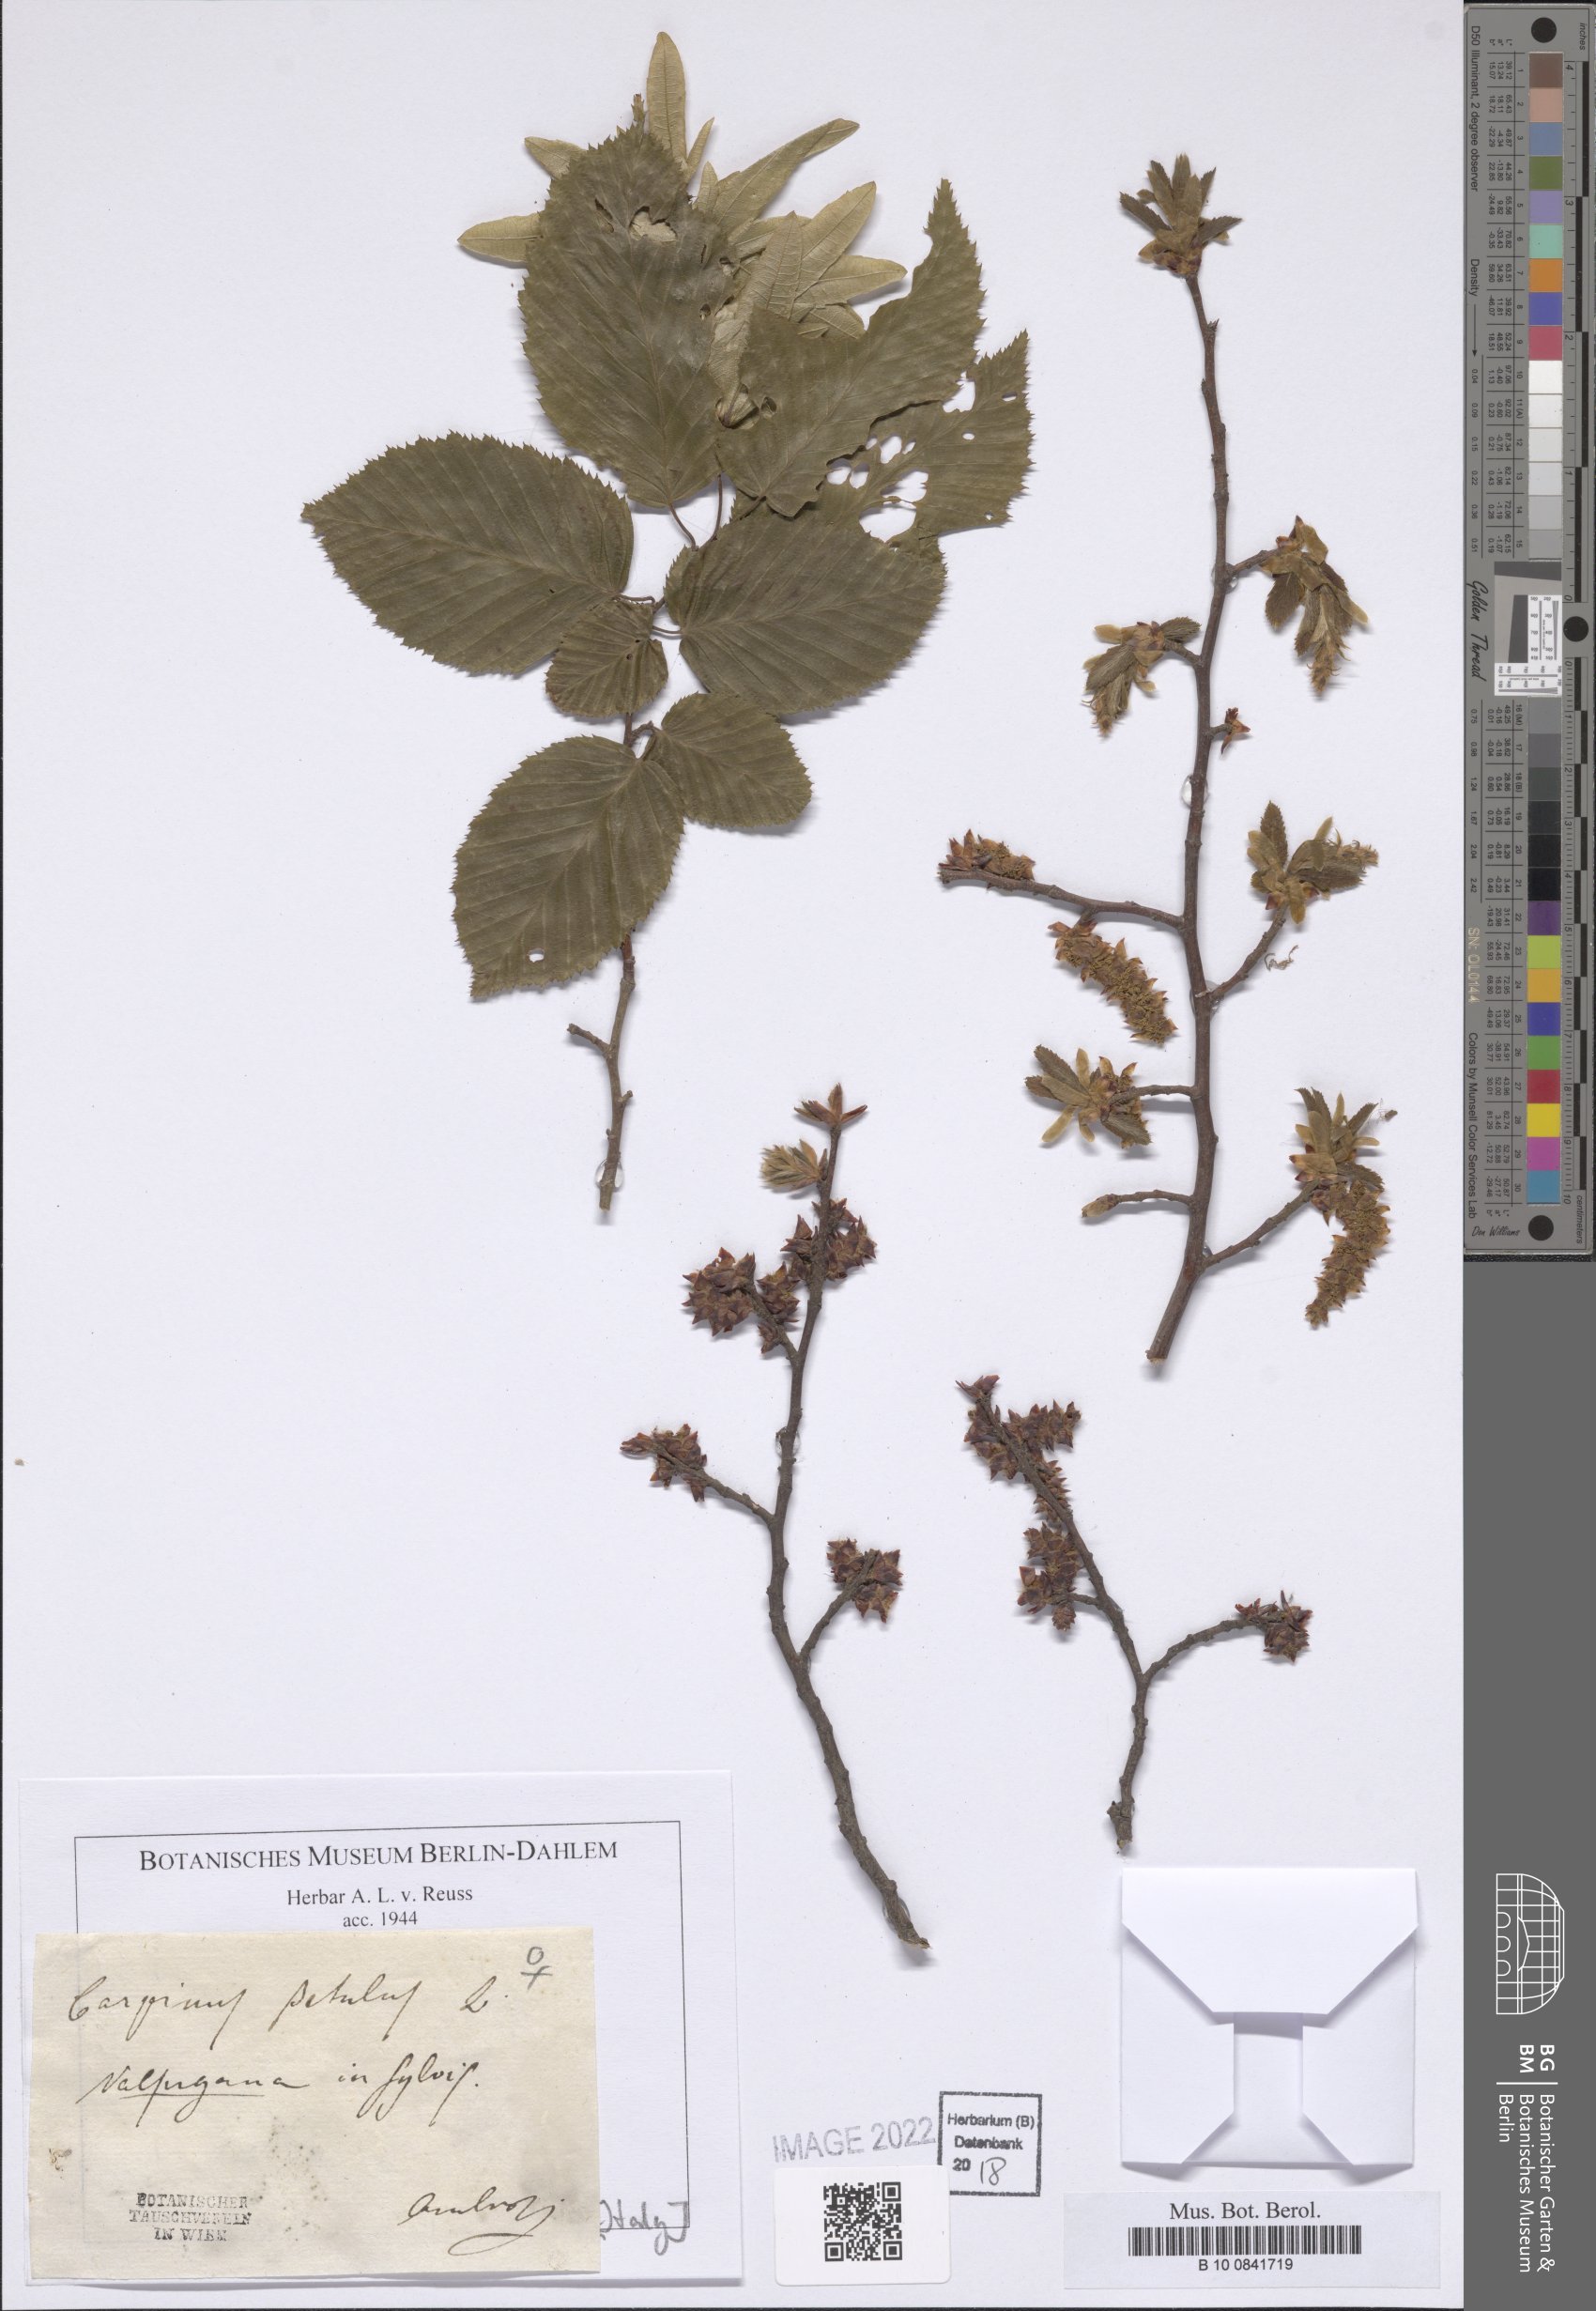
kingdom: Plantae
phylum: Tracheophyta
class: Magnoliopsida
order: Fagales
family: Betulaceae
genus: Carpinus
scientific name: Carpinus betulus
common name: Hornbeam
